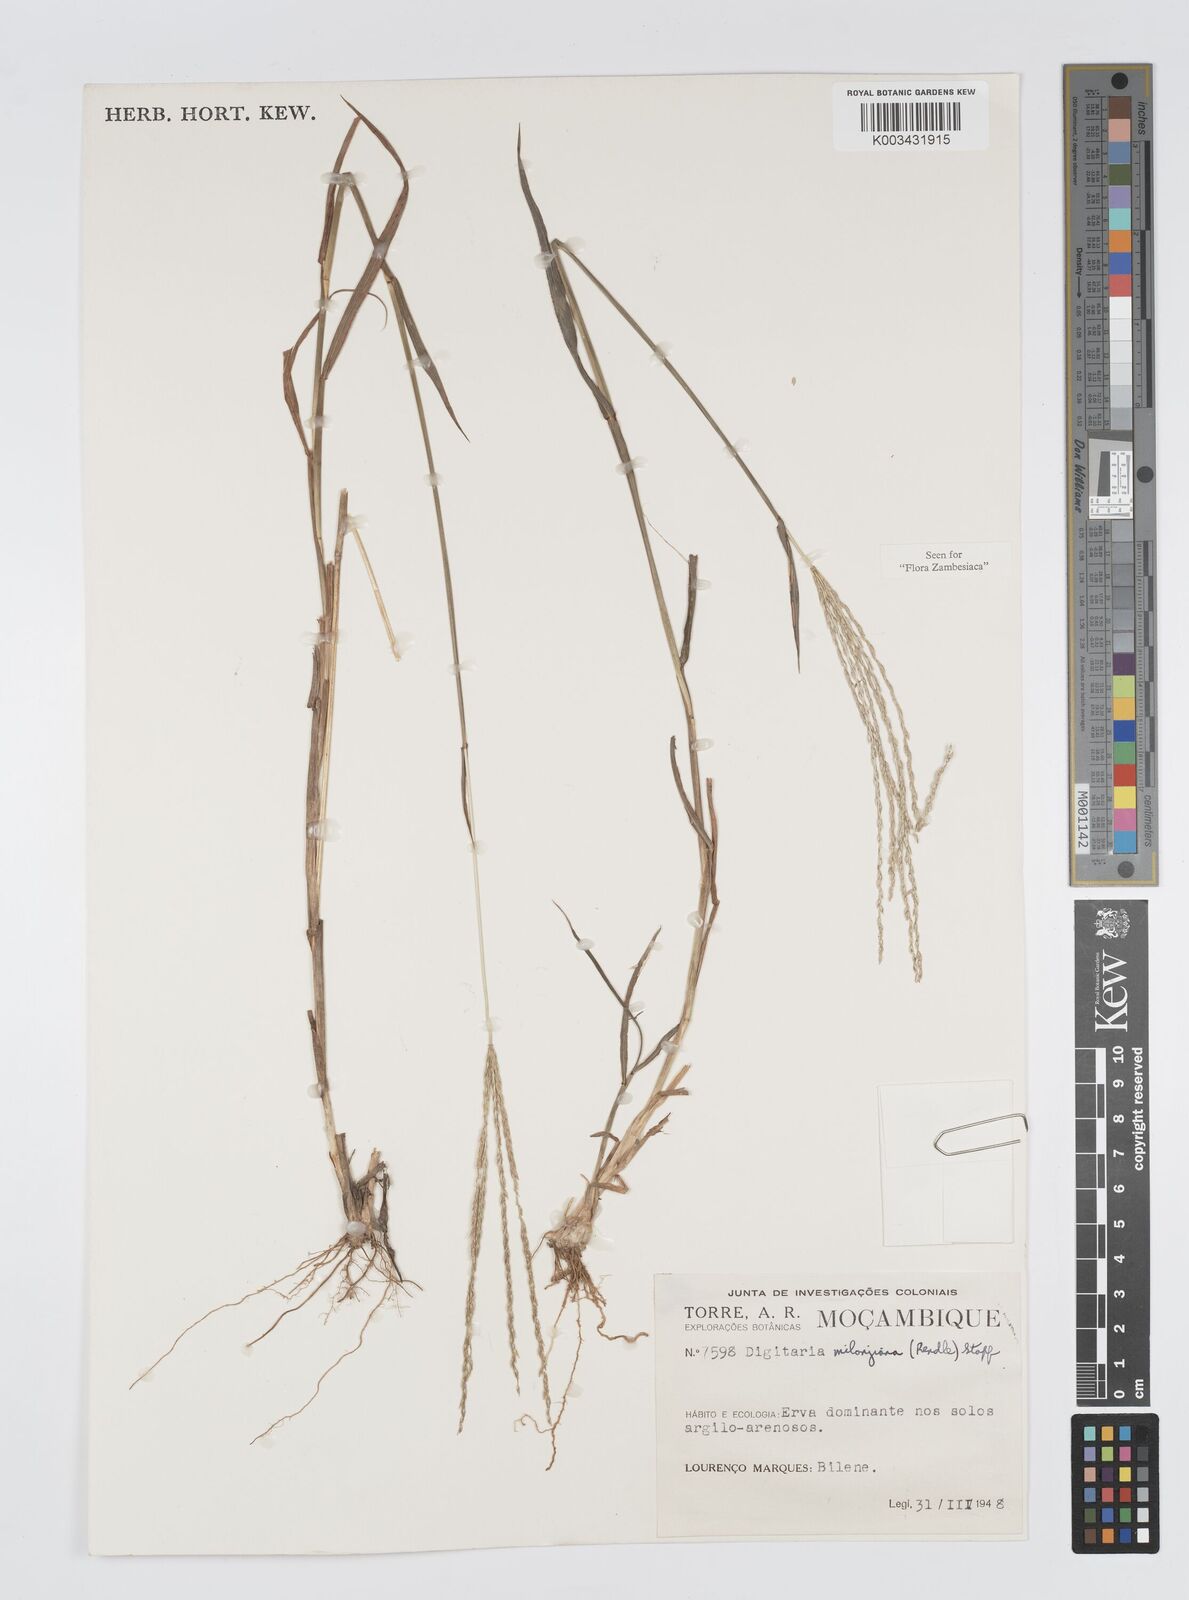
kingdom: Plantae
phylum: Tracheophyta
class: Liliopsida
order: Poales
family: Poaceae
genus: Digitaria
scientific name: Digitaria milanjiana
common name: Madagascar crabgrass
